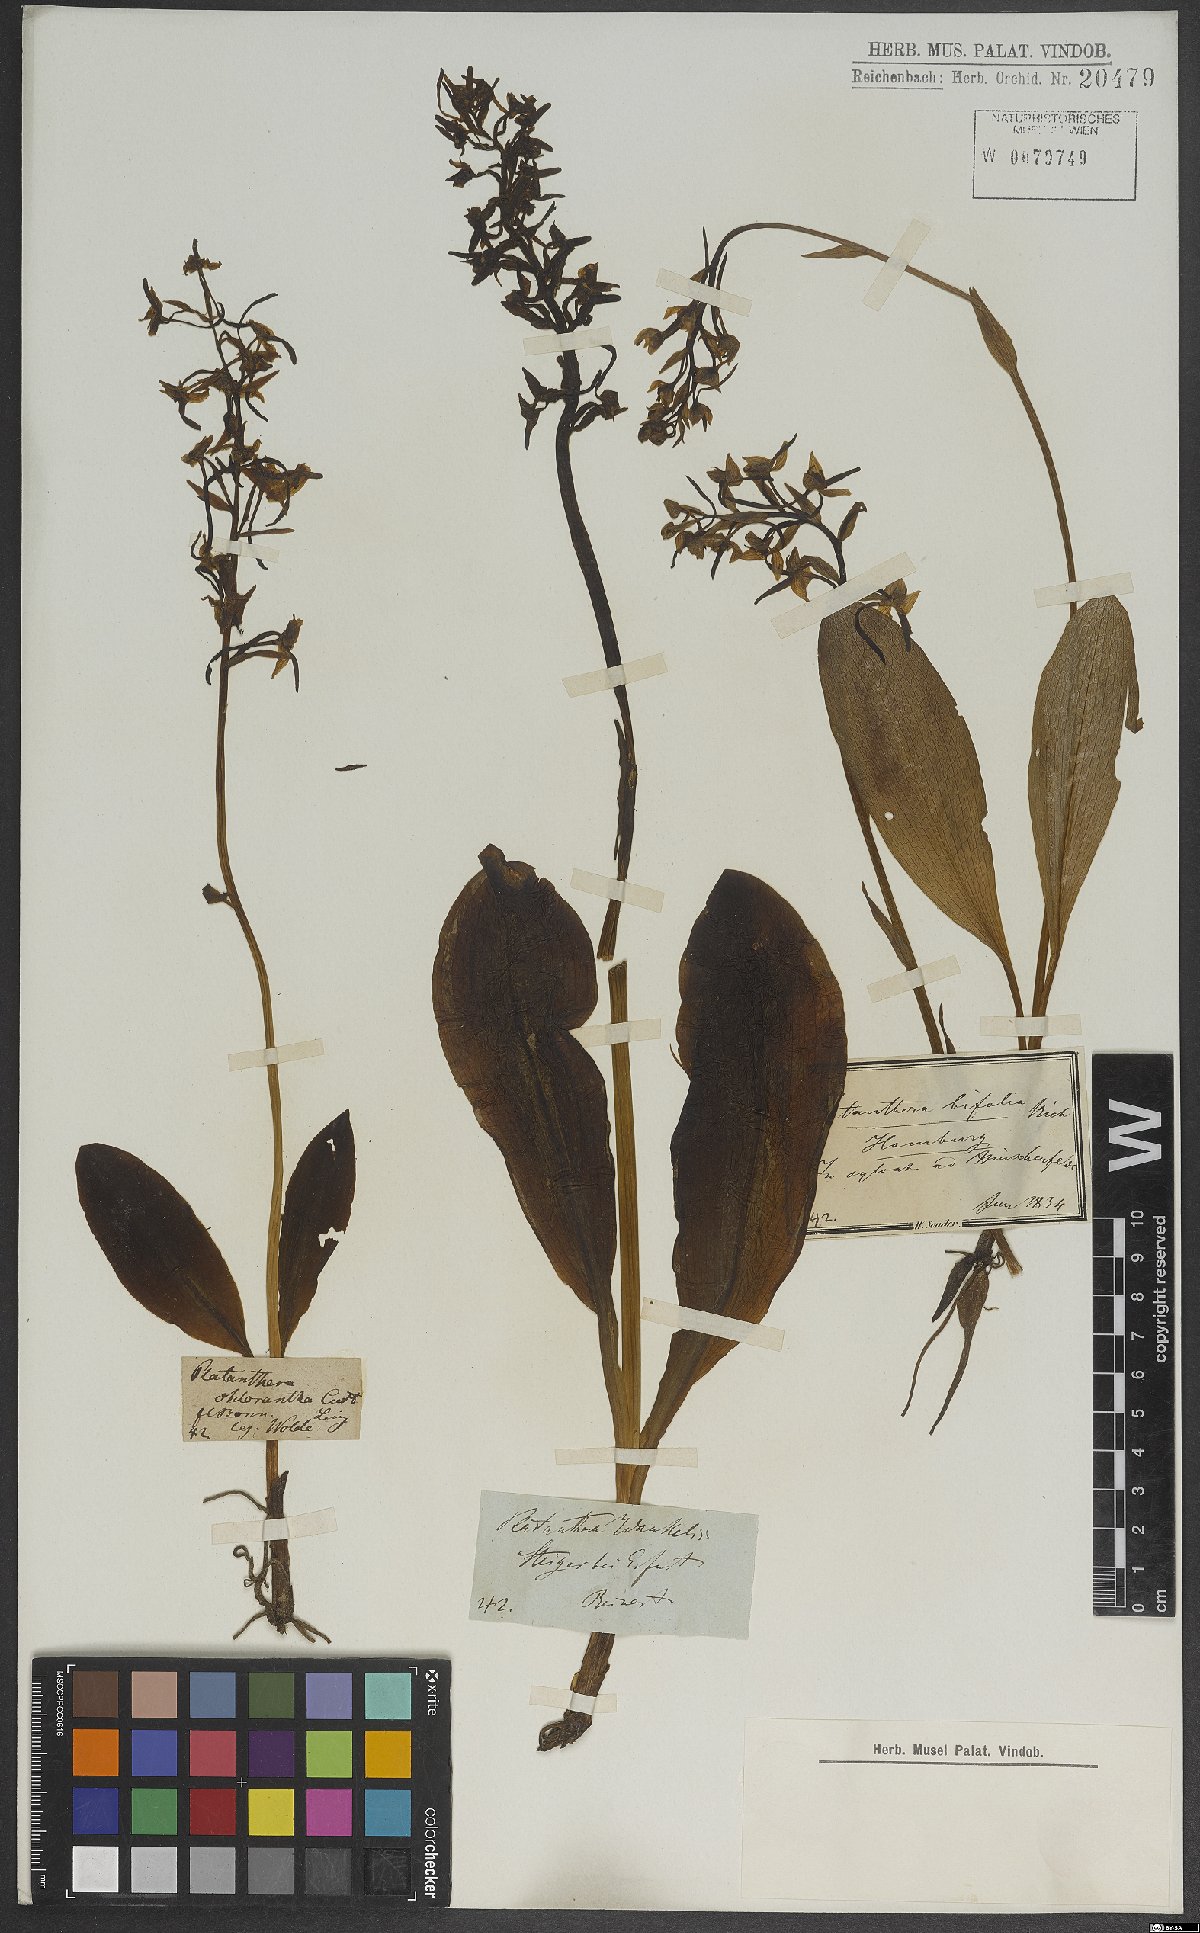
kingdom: Plantae
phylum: Tracheophyta
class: Liliopsida
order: Asparagales
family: Orchidaceae
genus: Platanthera
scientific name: Platanthera bifolia
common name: Lesser butterfly-orchid
